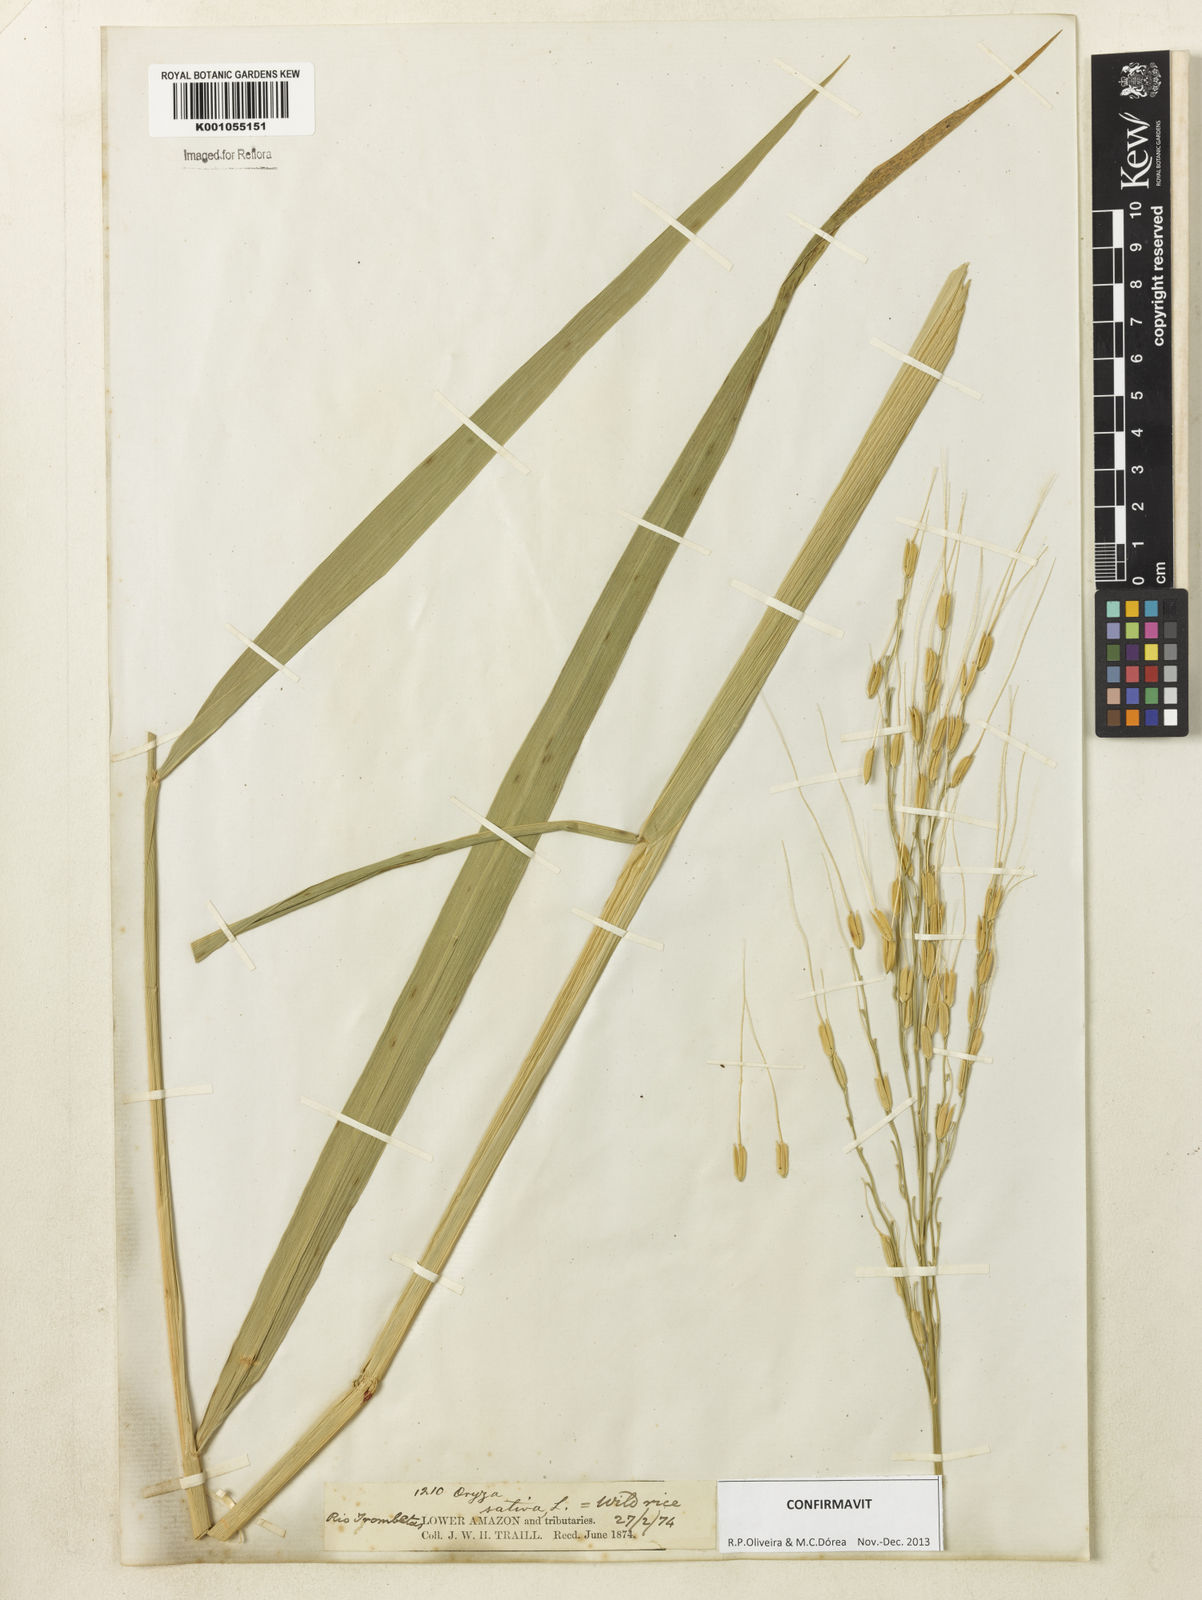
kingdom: Plantae
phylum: Tracheophyta
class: Liliopsida
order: Poales
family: Poaceae
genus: Oryza
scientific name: Oryza sativa
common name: Rice
